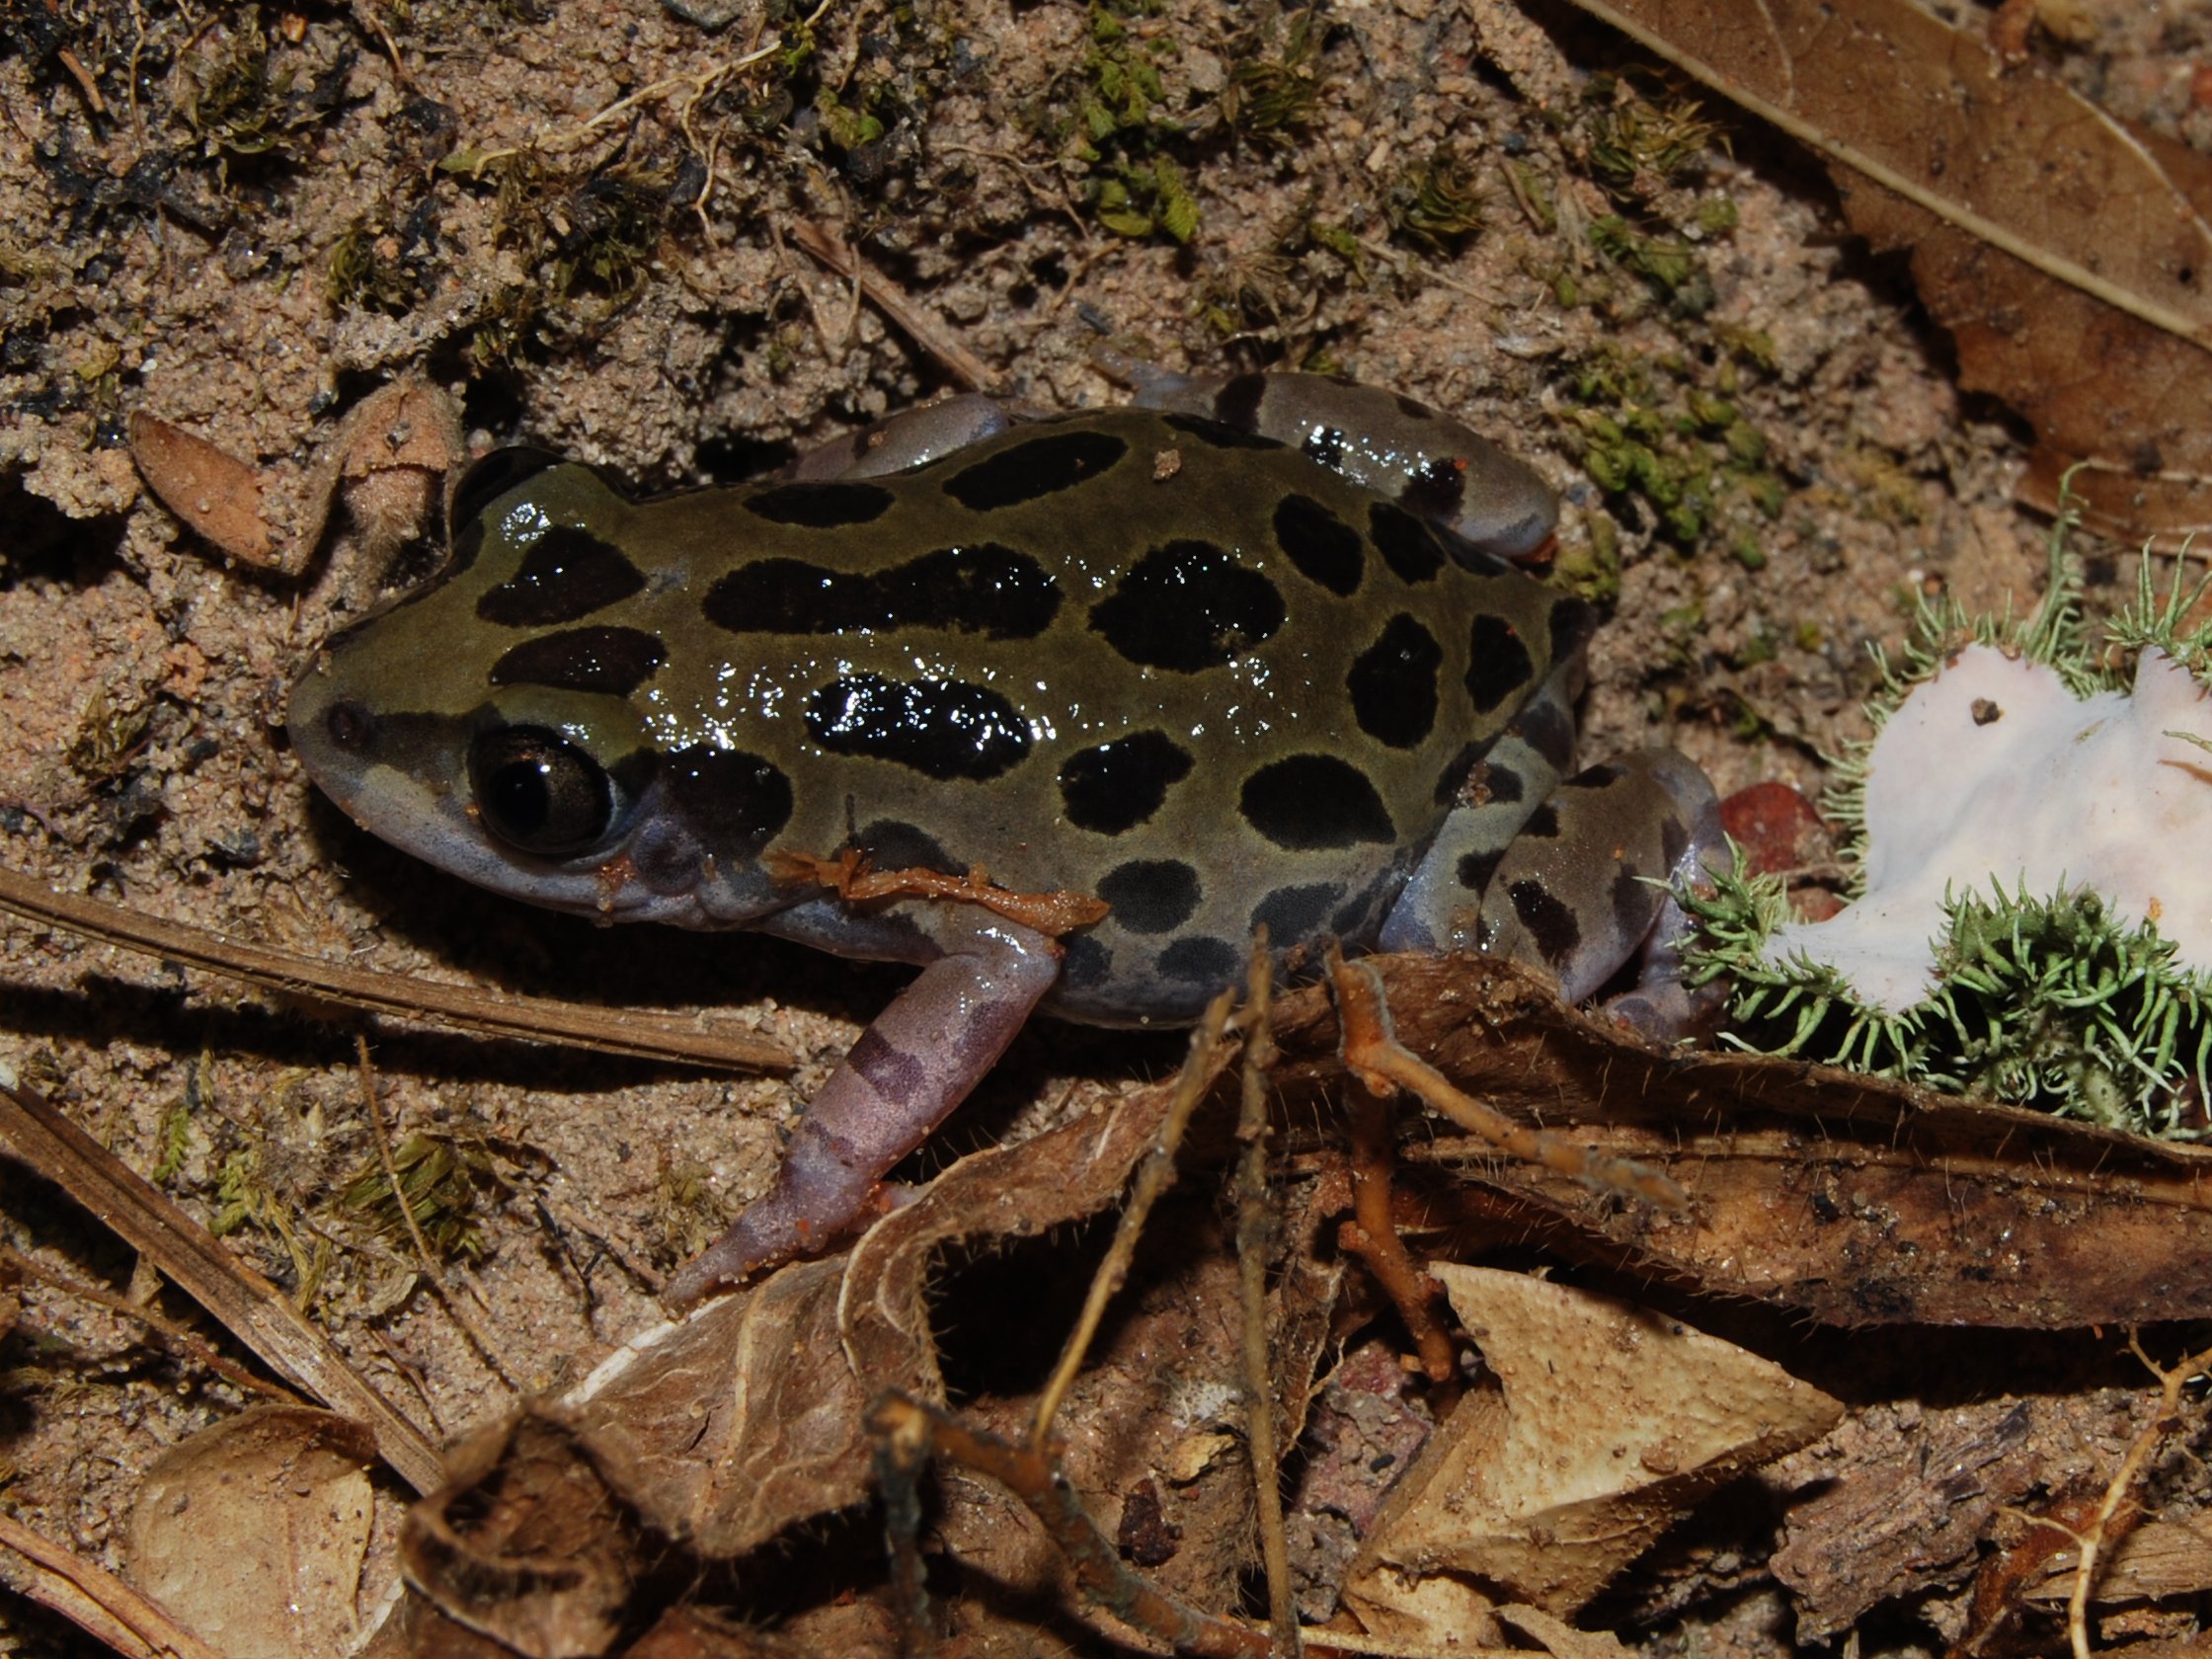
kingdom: Animalia
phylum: Chordata
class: Amphibia
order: Anura
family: Hyperoliidae
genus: Kassina
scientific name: Kassina senegalensis
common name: Senegal land frog
